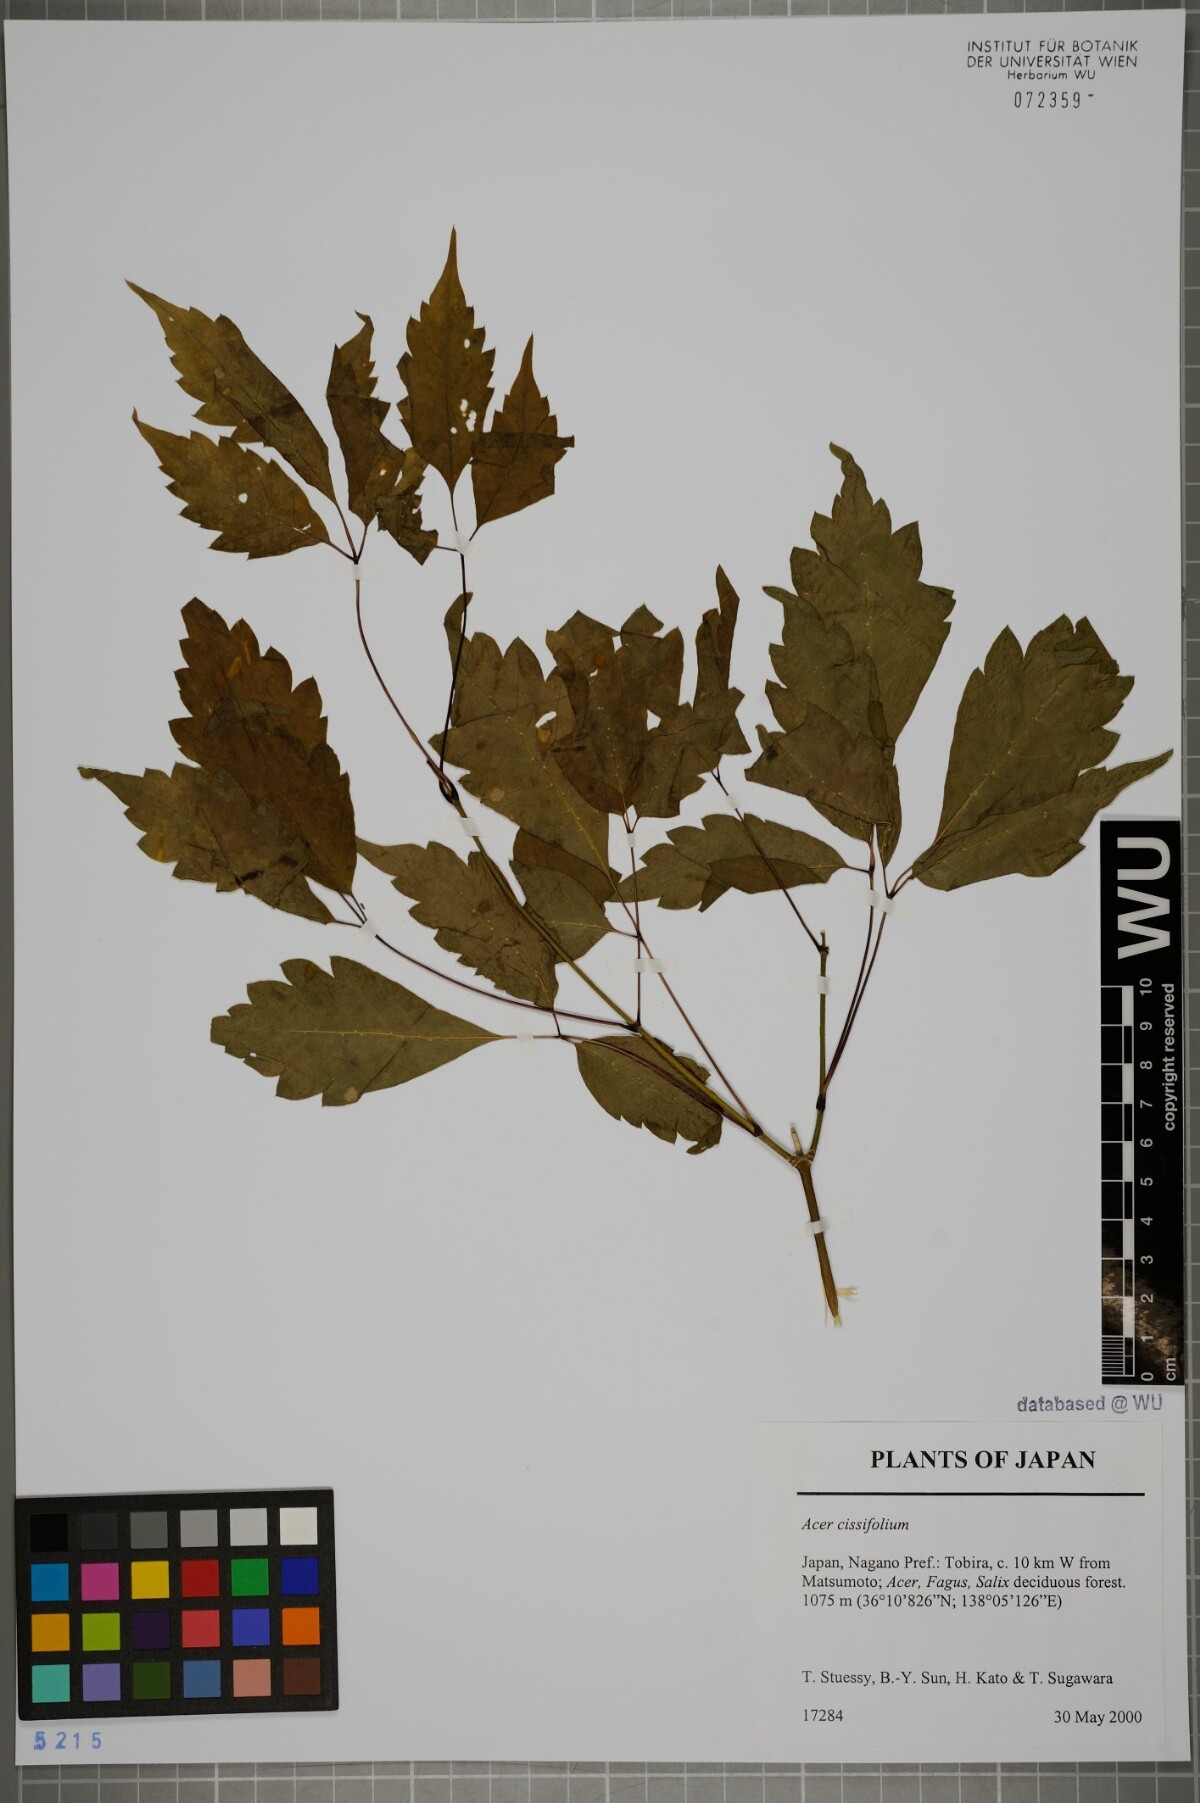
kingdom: Plantae
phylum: Tracheophyta
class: Magnoliopsida
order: Sapindales
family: Sapindaceae
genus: Acer
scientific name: Acer cissifolium
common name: Ivyleaf maple
